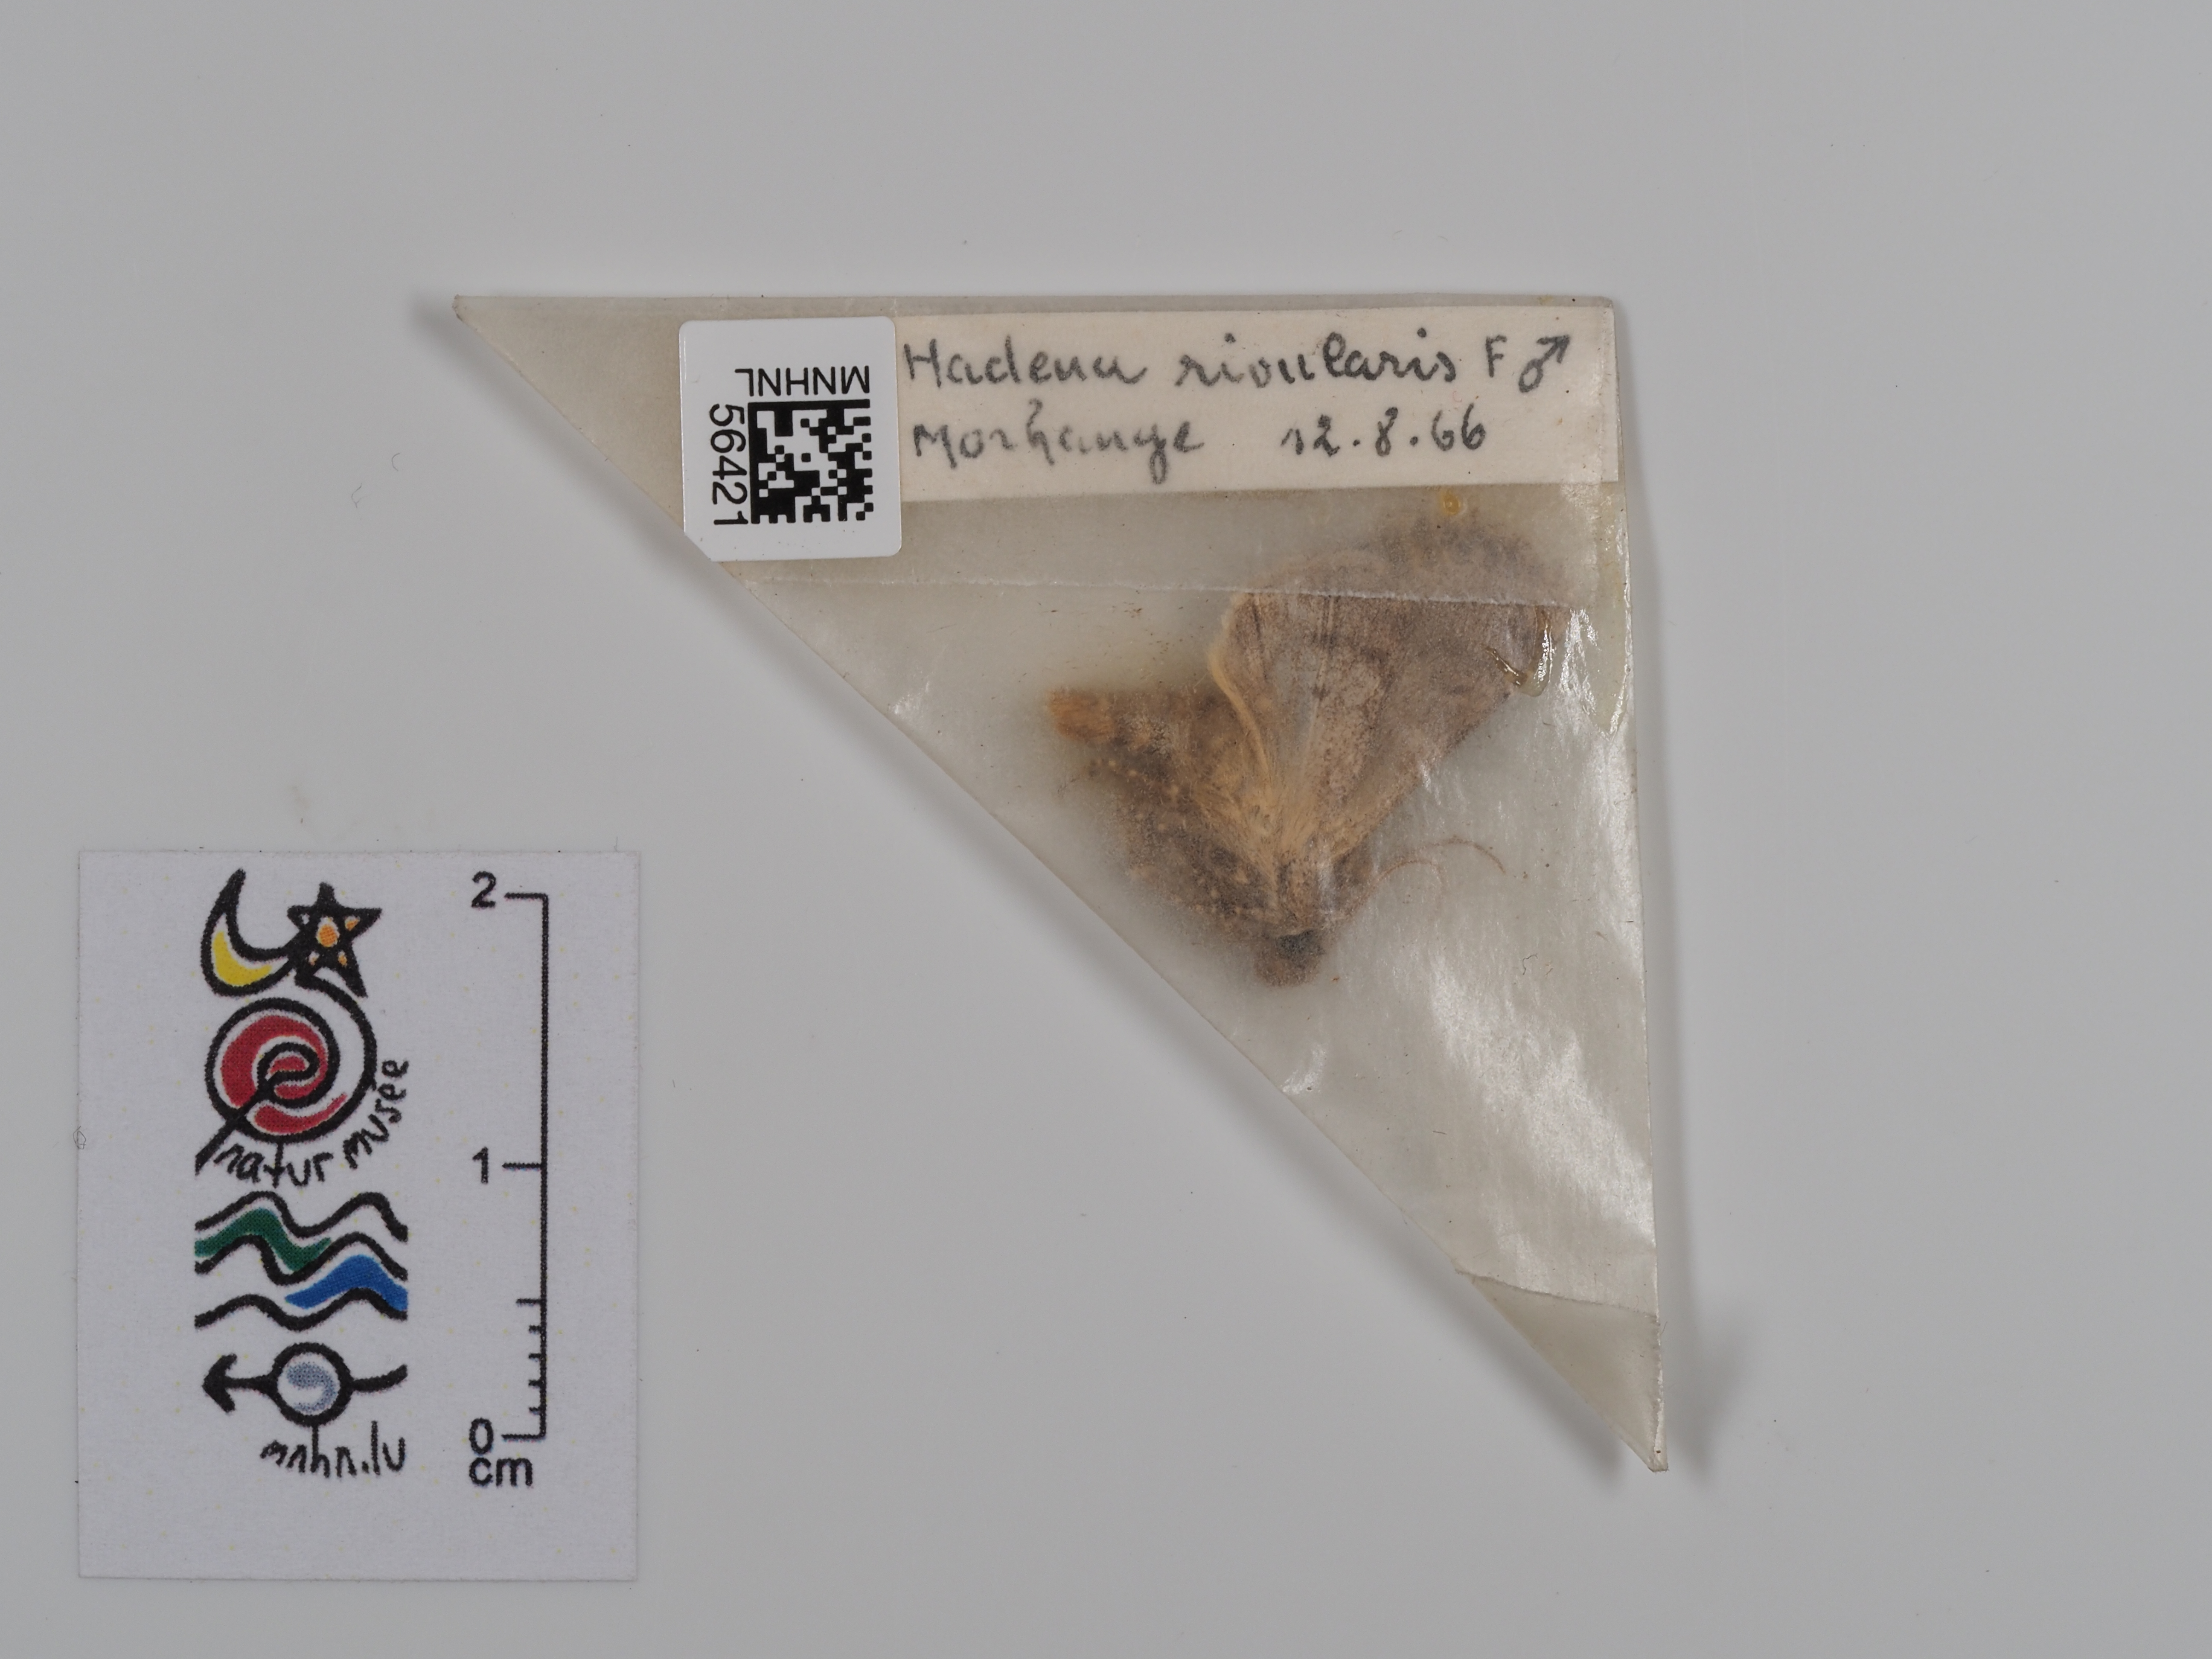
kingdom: Animalia
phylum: Arthropoda
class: Insecta
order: Lepidoptera
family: Noctuidae
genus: Sideridis
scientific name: Sideridis rivularis
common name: Campion
